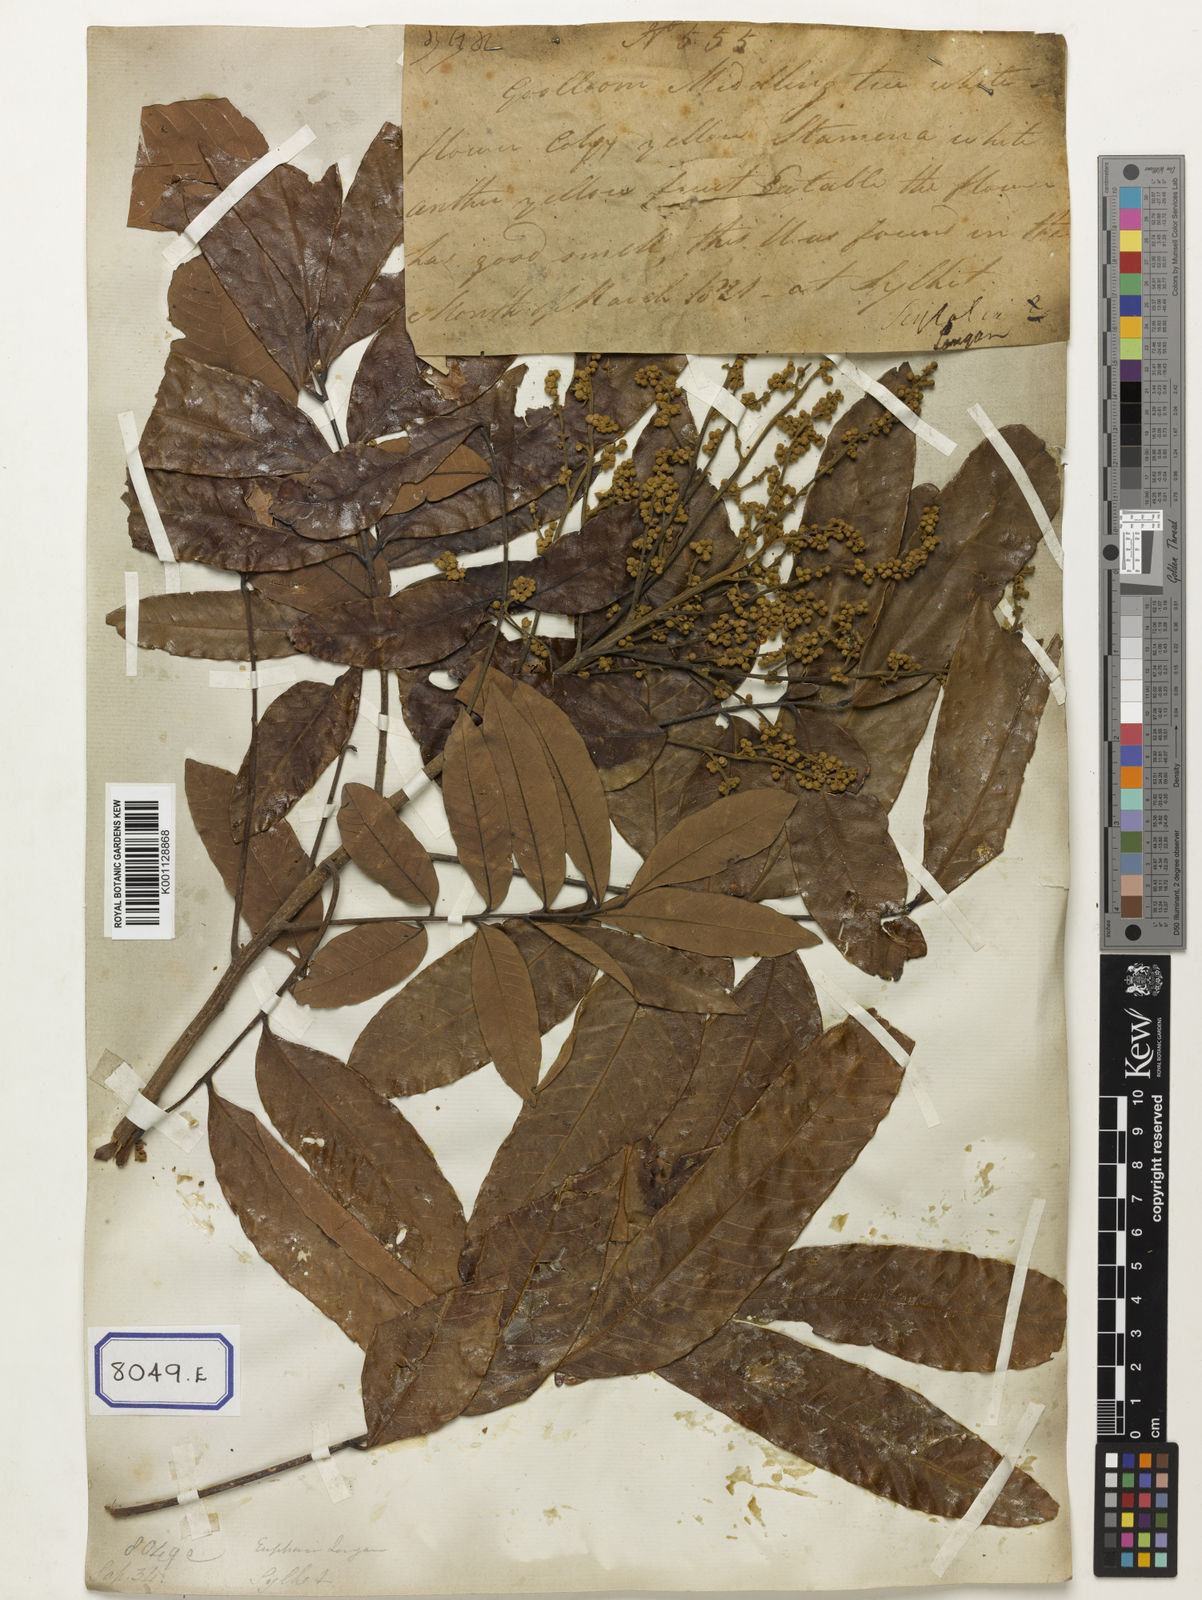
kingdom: Plantae
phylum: Tracheophyta
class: Magnoliopsida
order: Sapindales
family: Sapindaceae
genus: Dimocarpus
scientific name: Dimocarpus longan
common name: Longan
